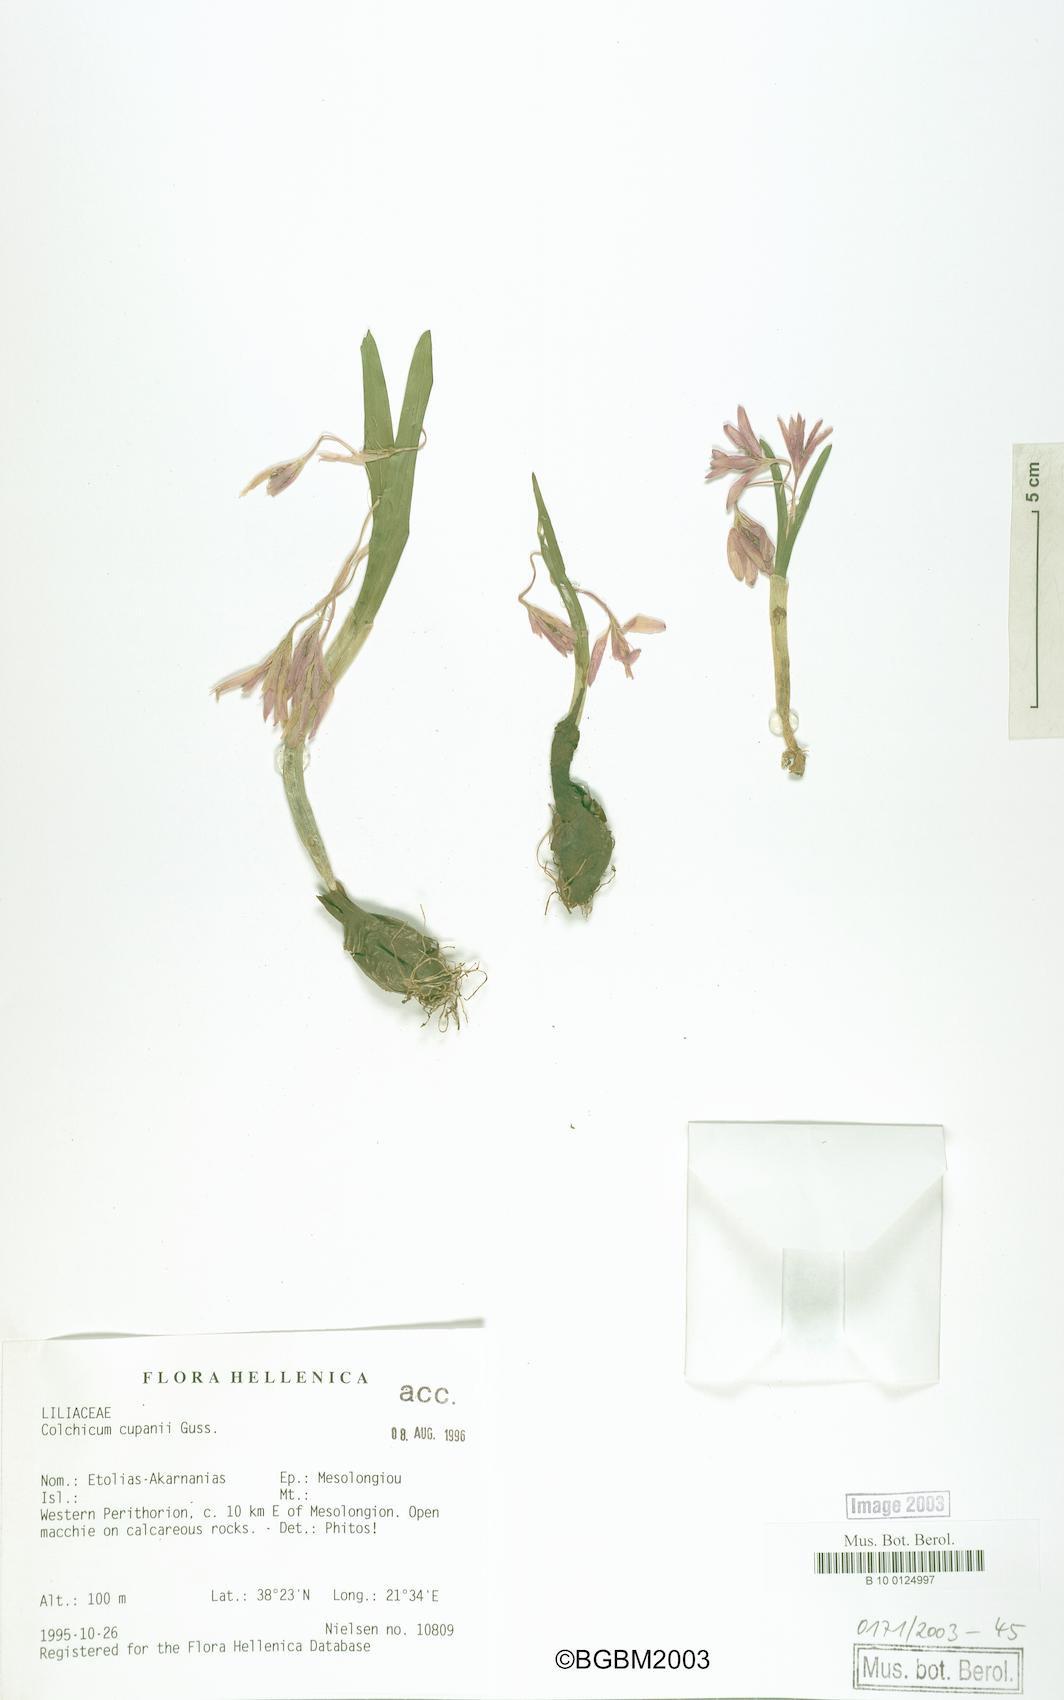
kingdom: Plantae
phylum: Tracheophyta
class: Liliopsida
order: Liliales
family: Colchicaceae
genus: Colchicum
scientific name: Colchicum cupanii
